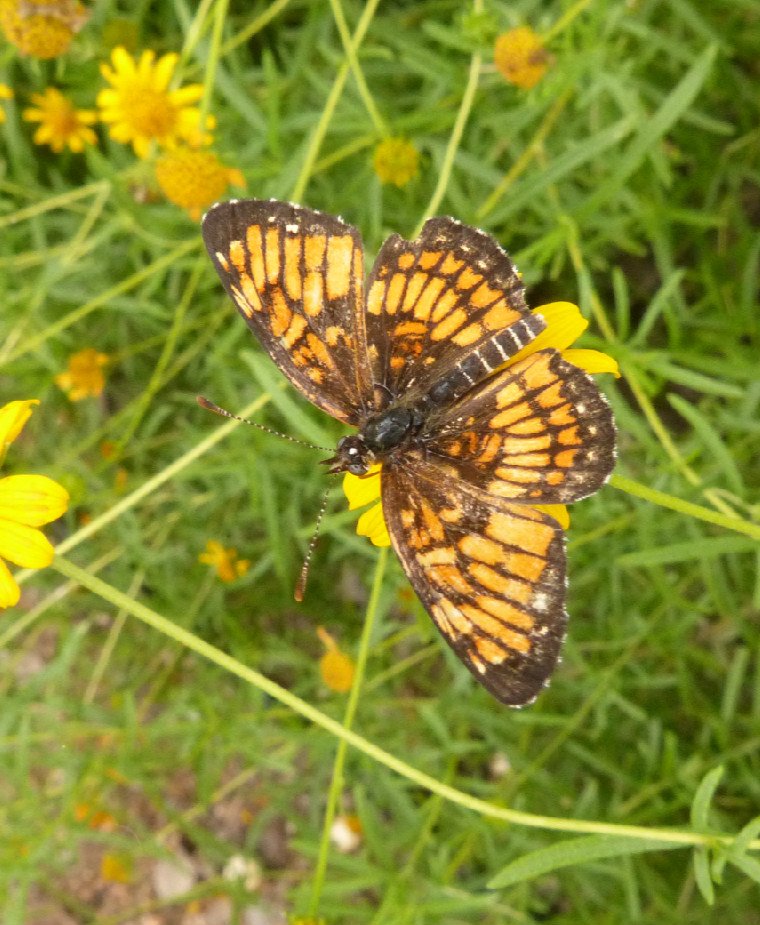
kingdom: Animalia
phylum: Arthropoda
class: Insecta
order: Lepidoptera
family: Nymphalidae
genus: Thessalia
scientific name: Thessalia theona
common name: Theona Checkerspot
